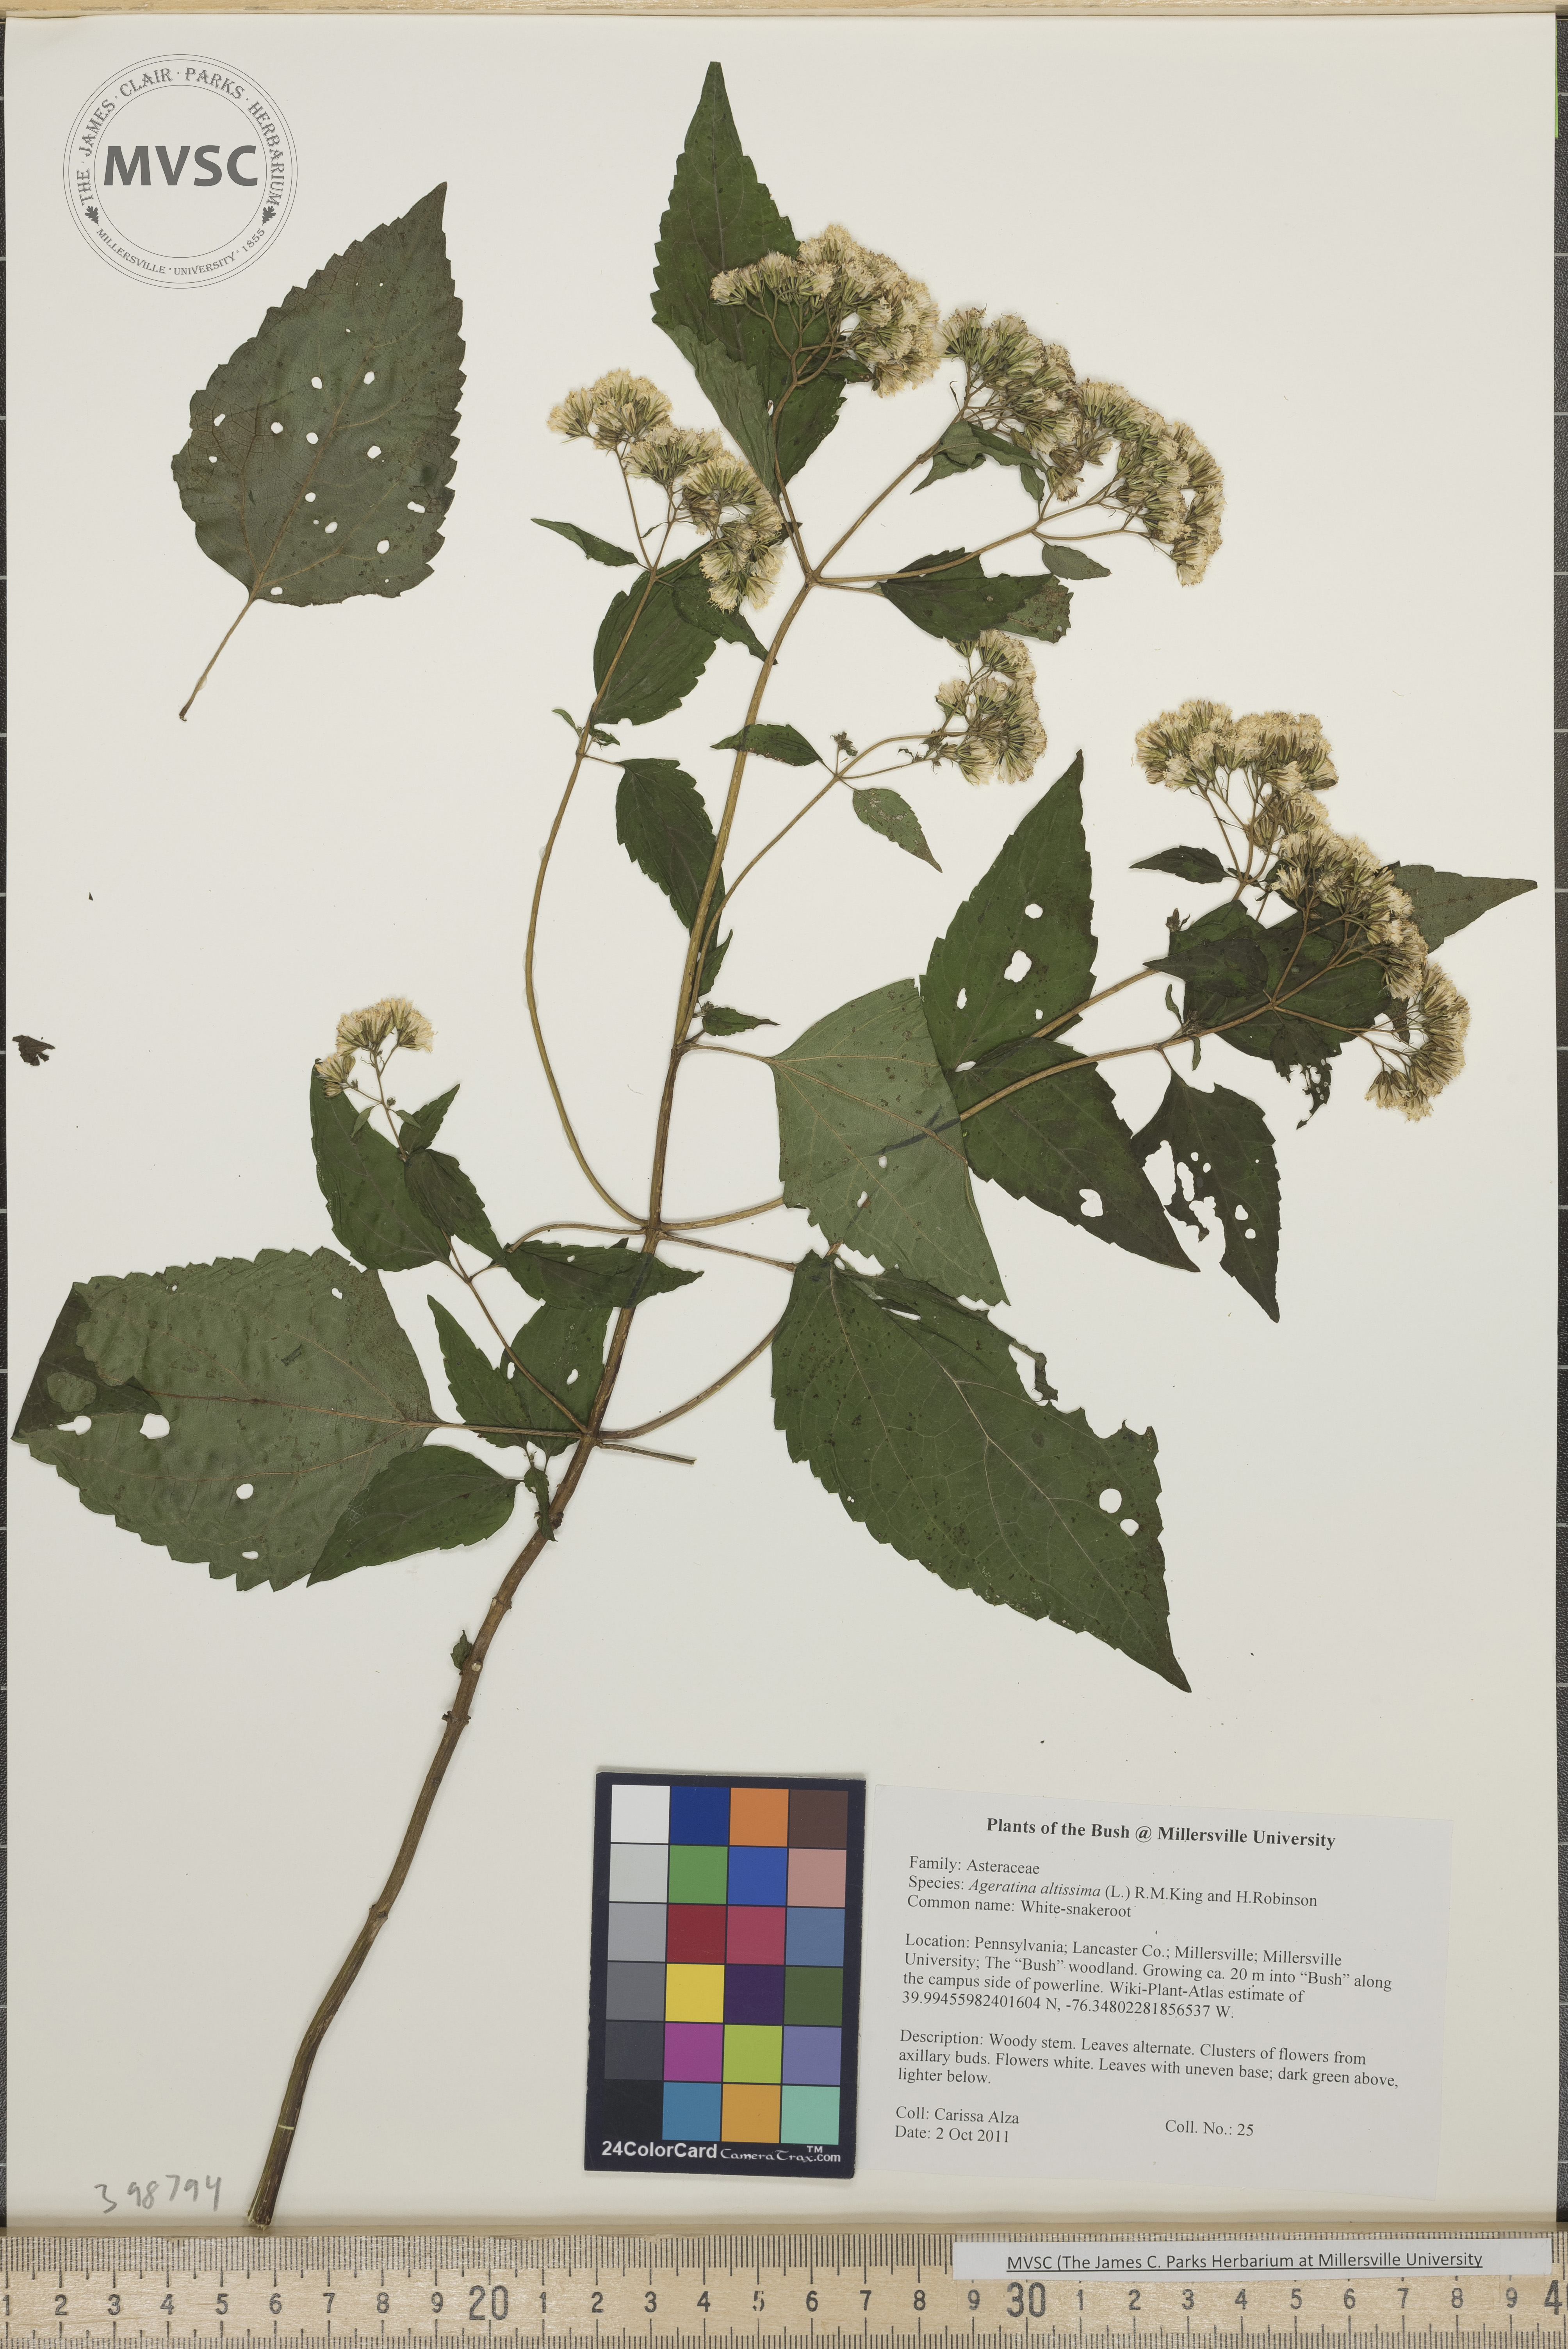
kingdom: Plantae
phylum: Tracheophyta
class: Magnoliopsida
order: Asterales
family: Asteraceae
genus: Ageratina
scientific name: Ageratina altissima
